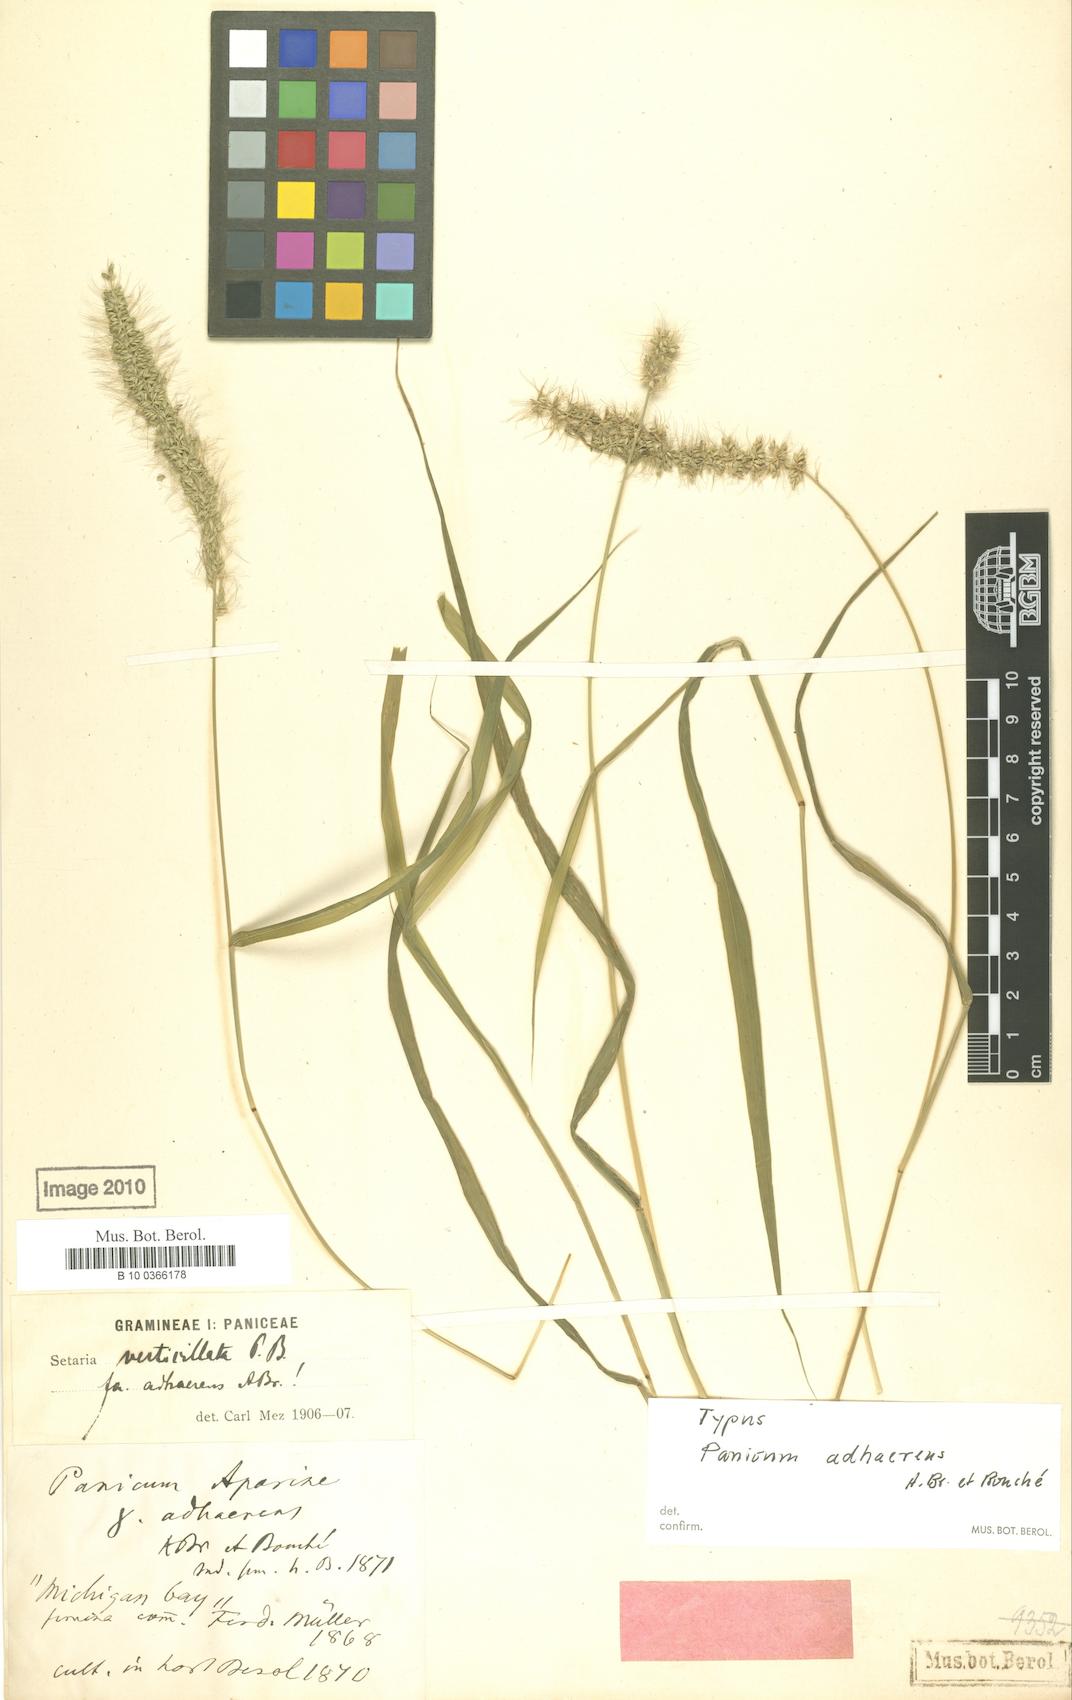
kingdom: Plantae
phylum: Tracheophyta
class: Liliopsida
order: Poales
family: Poaceae
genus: Setaria
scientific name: Setaria adhaerens
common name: Adherent bristle-grass
